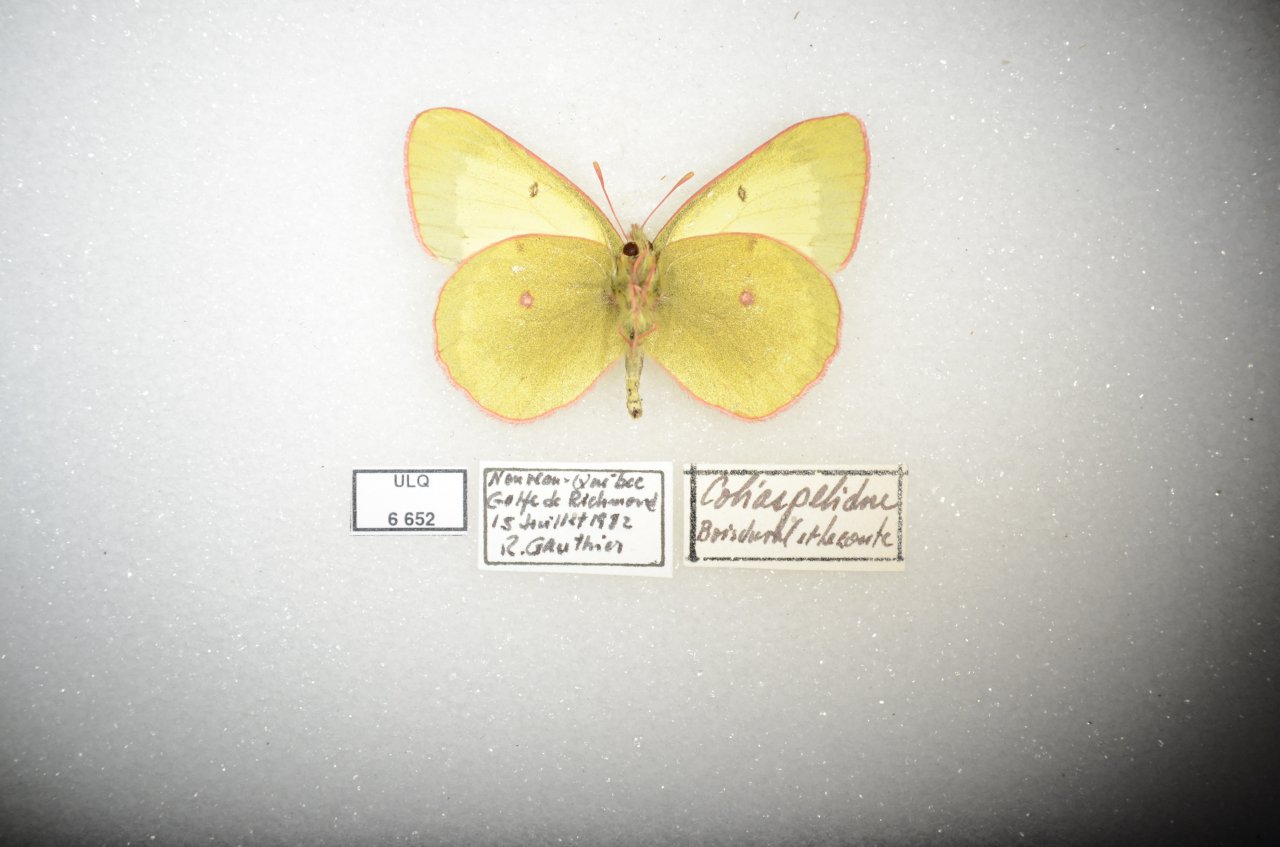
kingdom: Animalia
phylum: Arthropoda
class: Insecta
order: Lepidoptera
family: Pieridae
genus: Colias
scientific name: Colias palaeno
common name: Chippewa Sulphur
